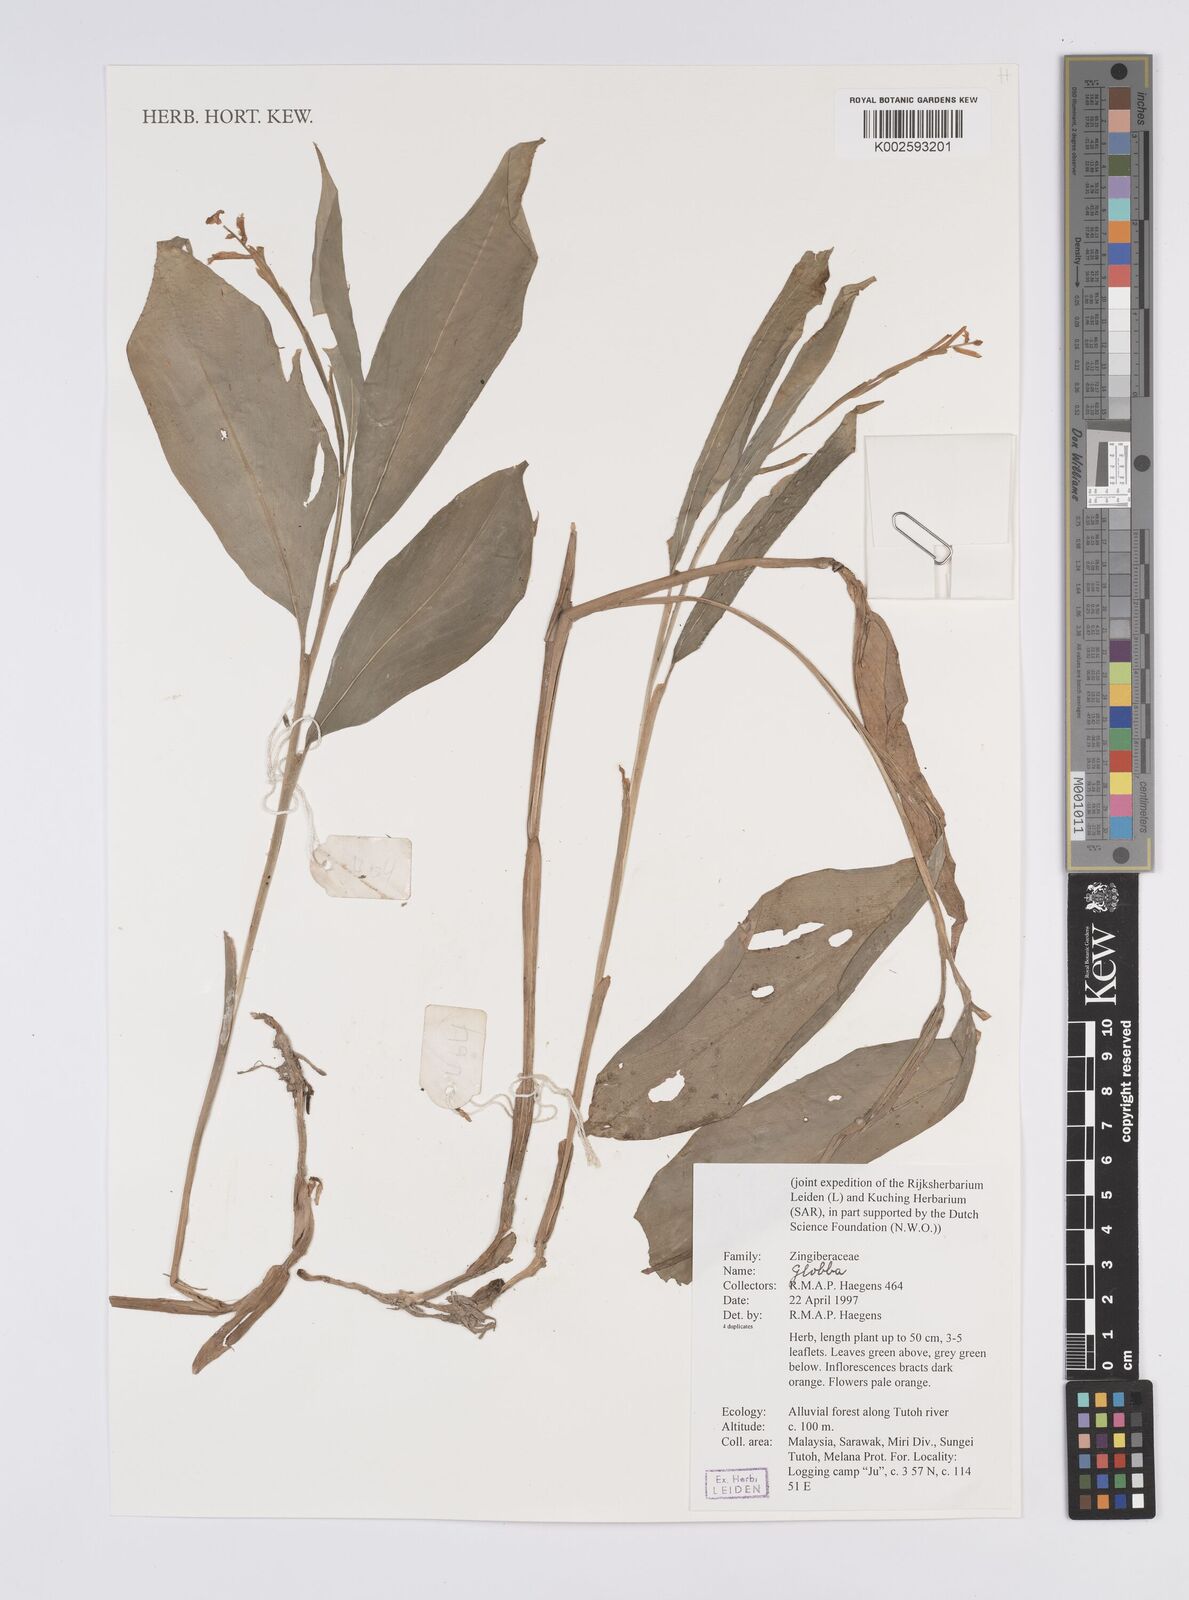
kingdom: Plantae
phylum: Tracheophyta
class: Liliopsida
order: Zingiberales
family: Zingiberaceae
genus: Globba
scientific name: Globba
